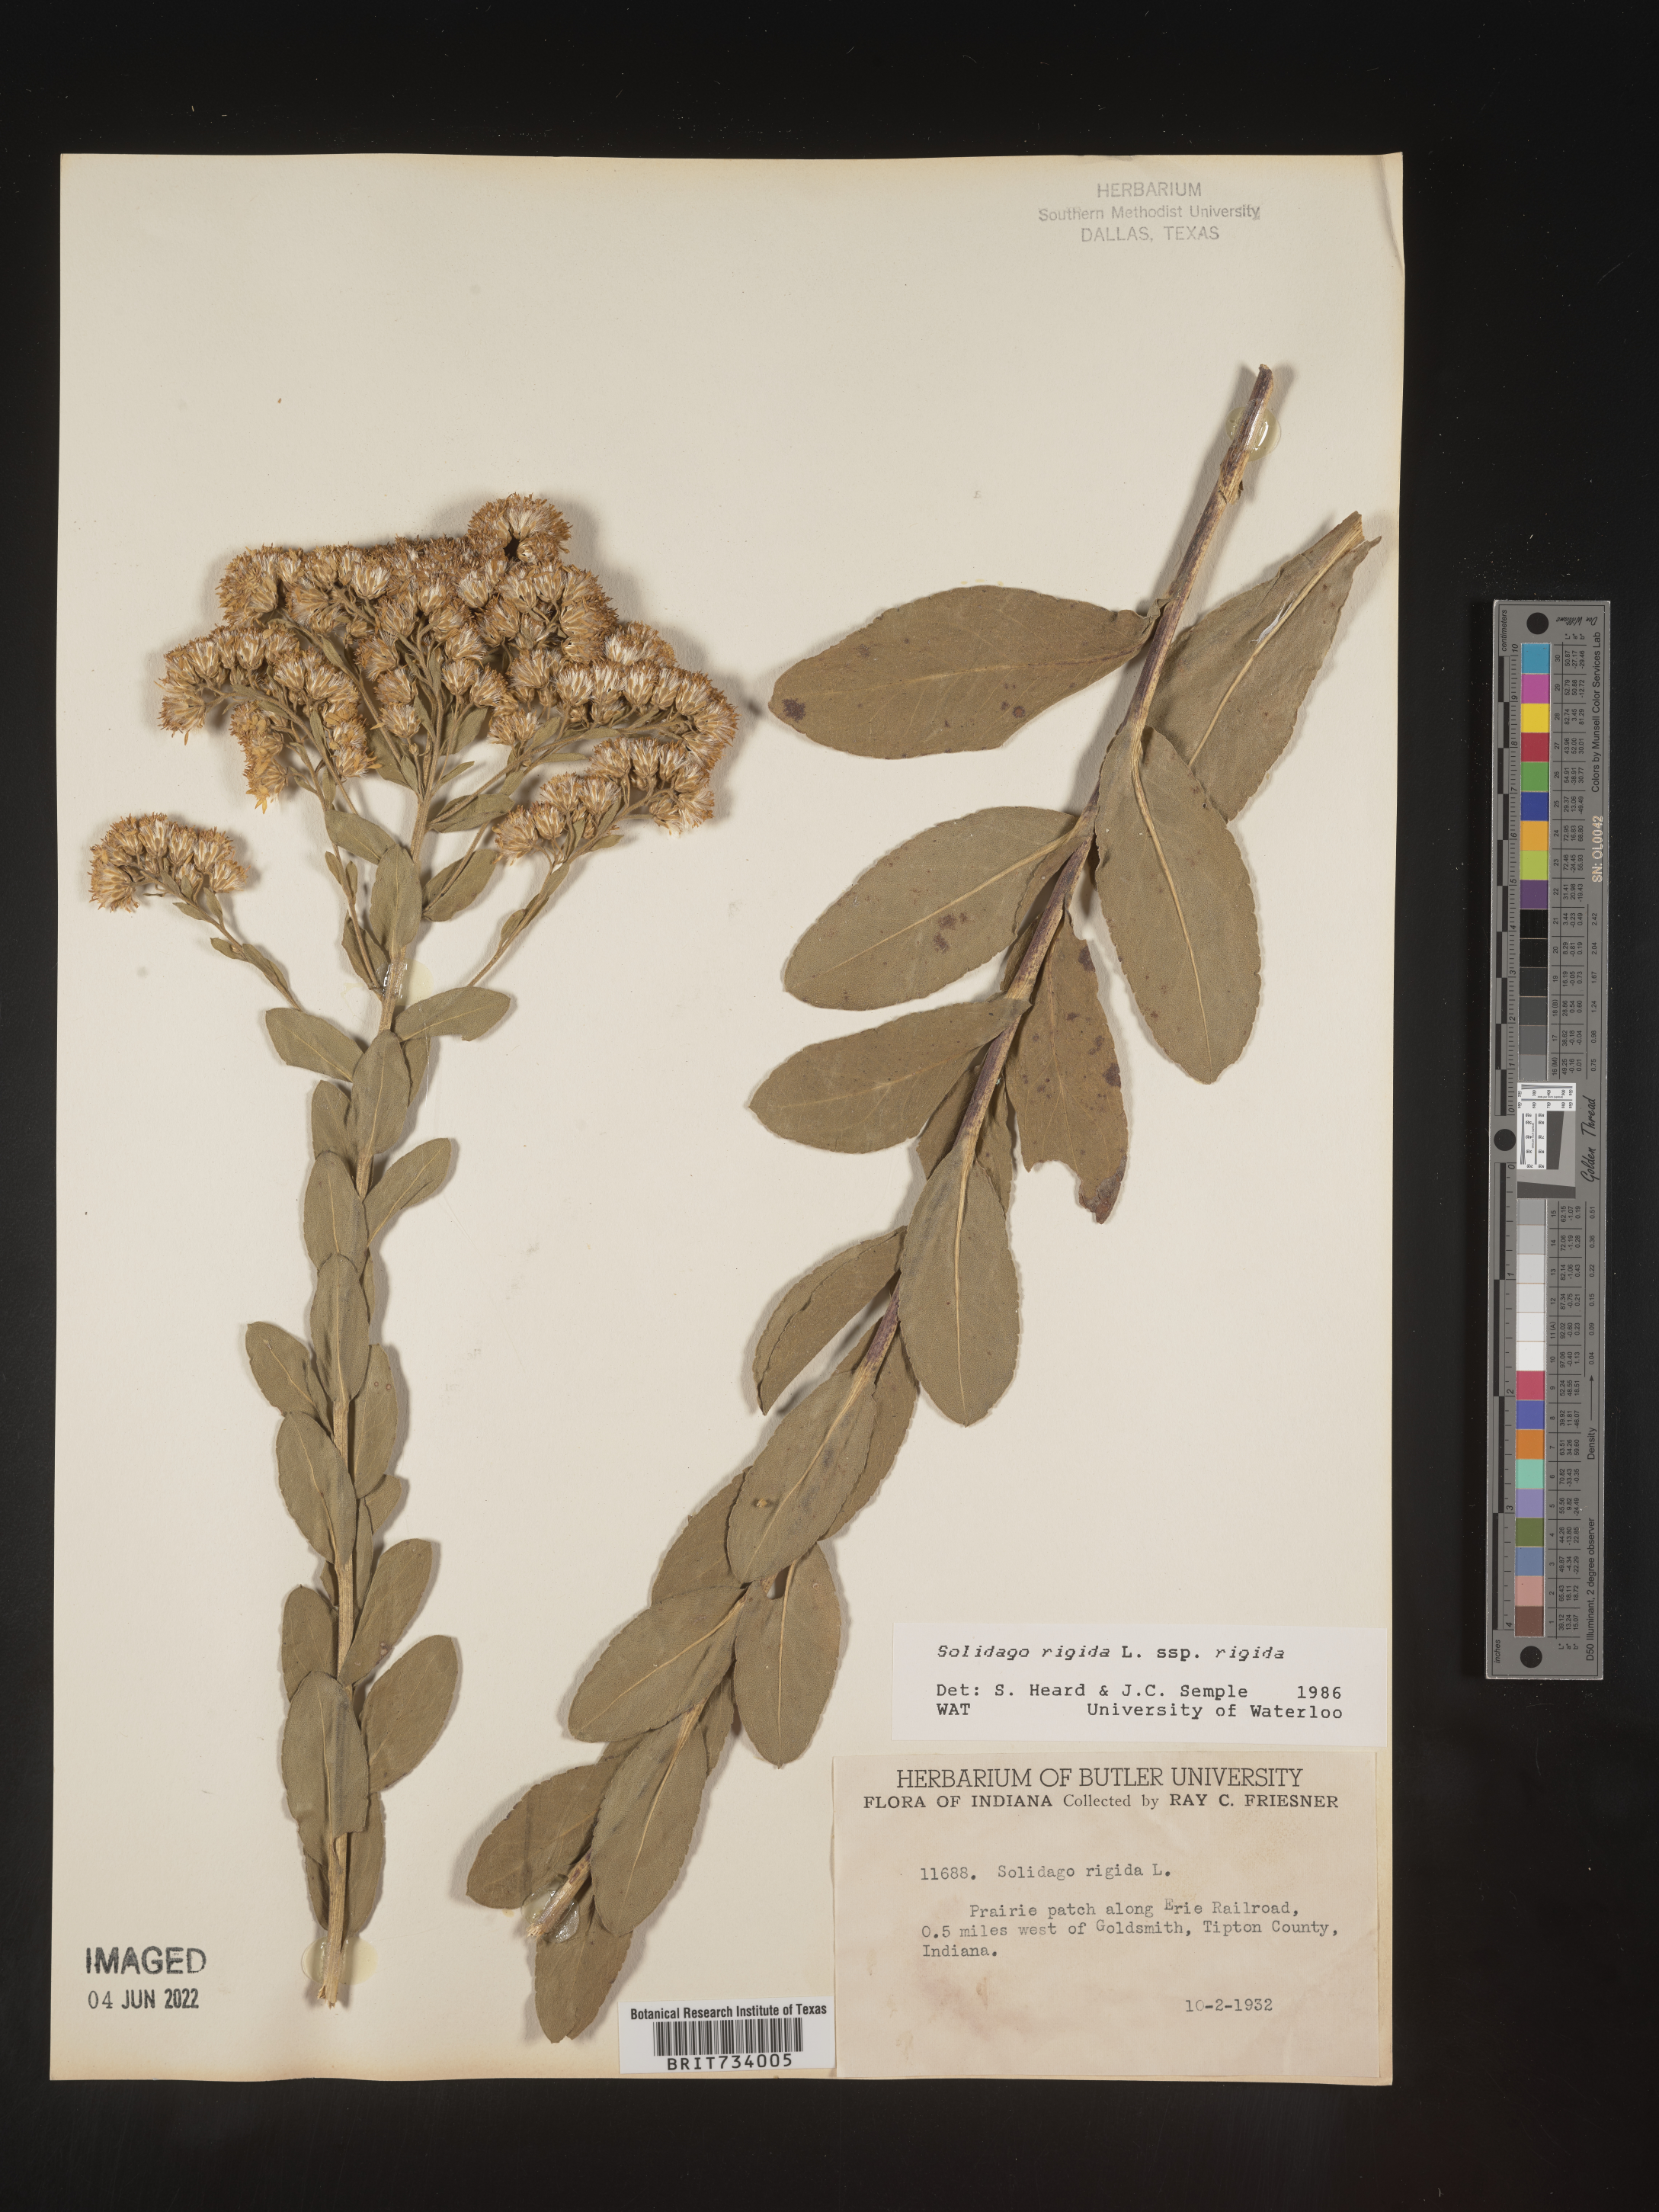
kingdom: Plantae
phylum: Tracheophyta
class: Magnoliopsida
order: Asterales
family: Asteraceae
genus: Solidago
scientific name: Solidago rigida
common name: Rigid goldenrod
